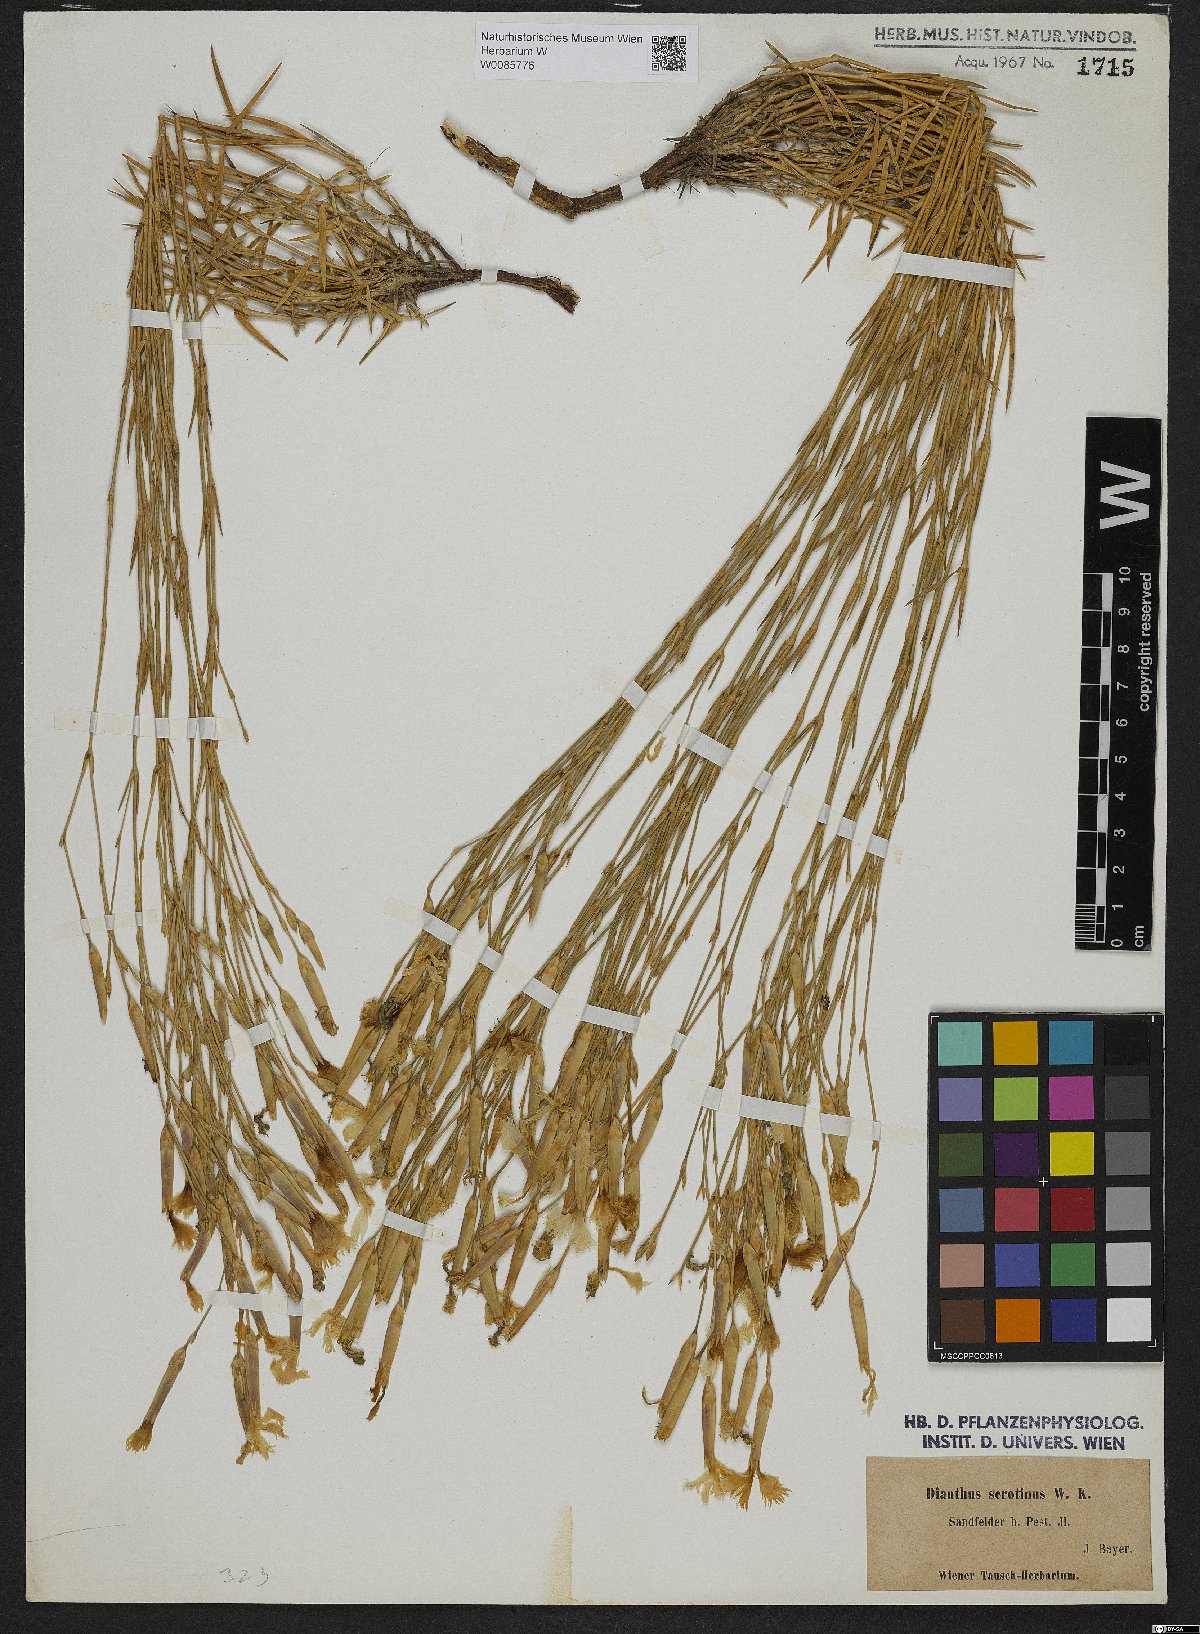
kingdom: Plantae
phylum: Tracheophyta
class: Magnoliopsida
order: Caryophyllales
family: Caryophyllaceae
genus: Dianthus
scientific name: Dianthus serotinus
